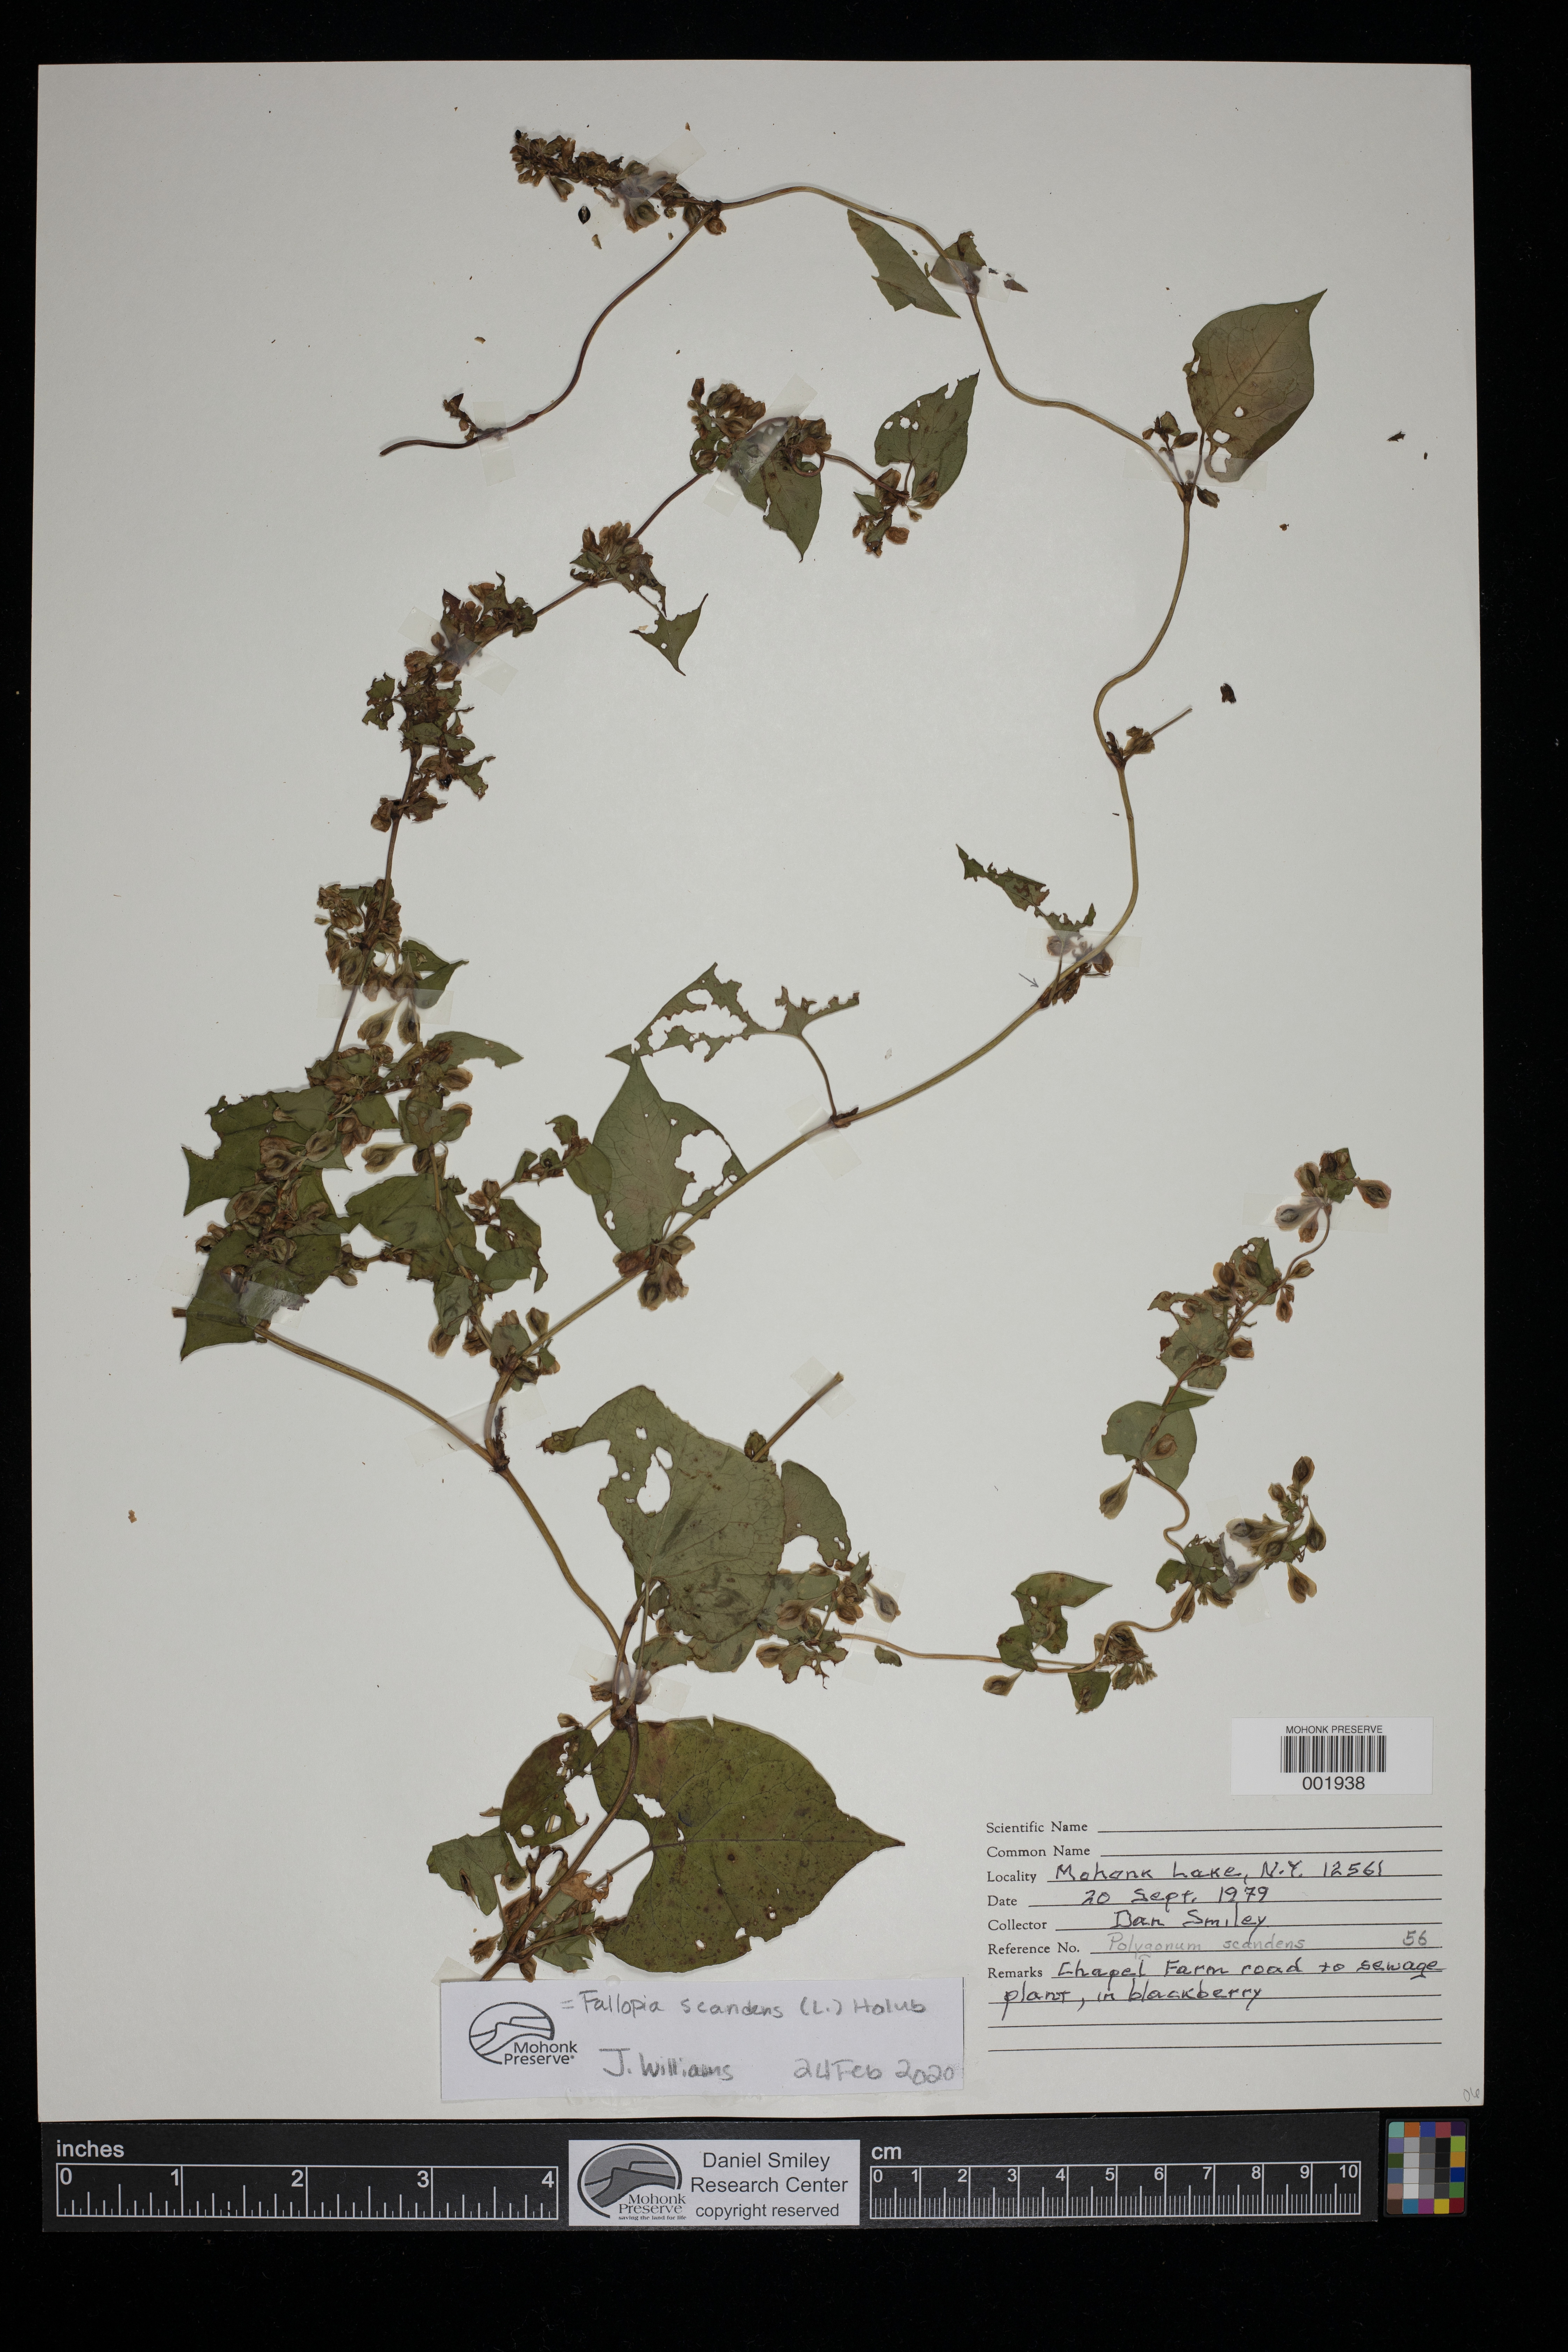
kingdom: Plantae
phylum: Tracheophyta
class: Magnoliopsida
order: Caryophyllales
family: Polygonaceae
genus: Fallopia
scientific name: Fallopia scandens
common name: Climbing false buckwheat
